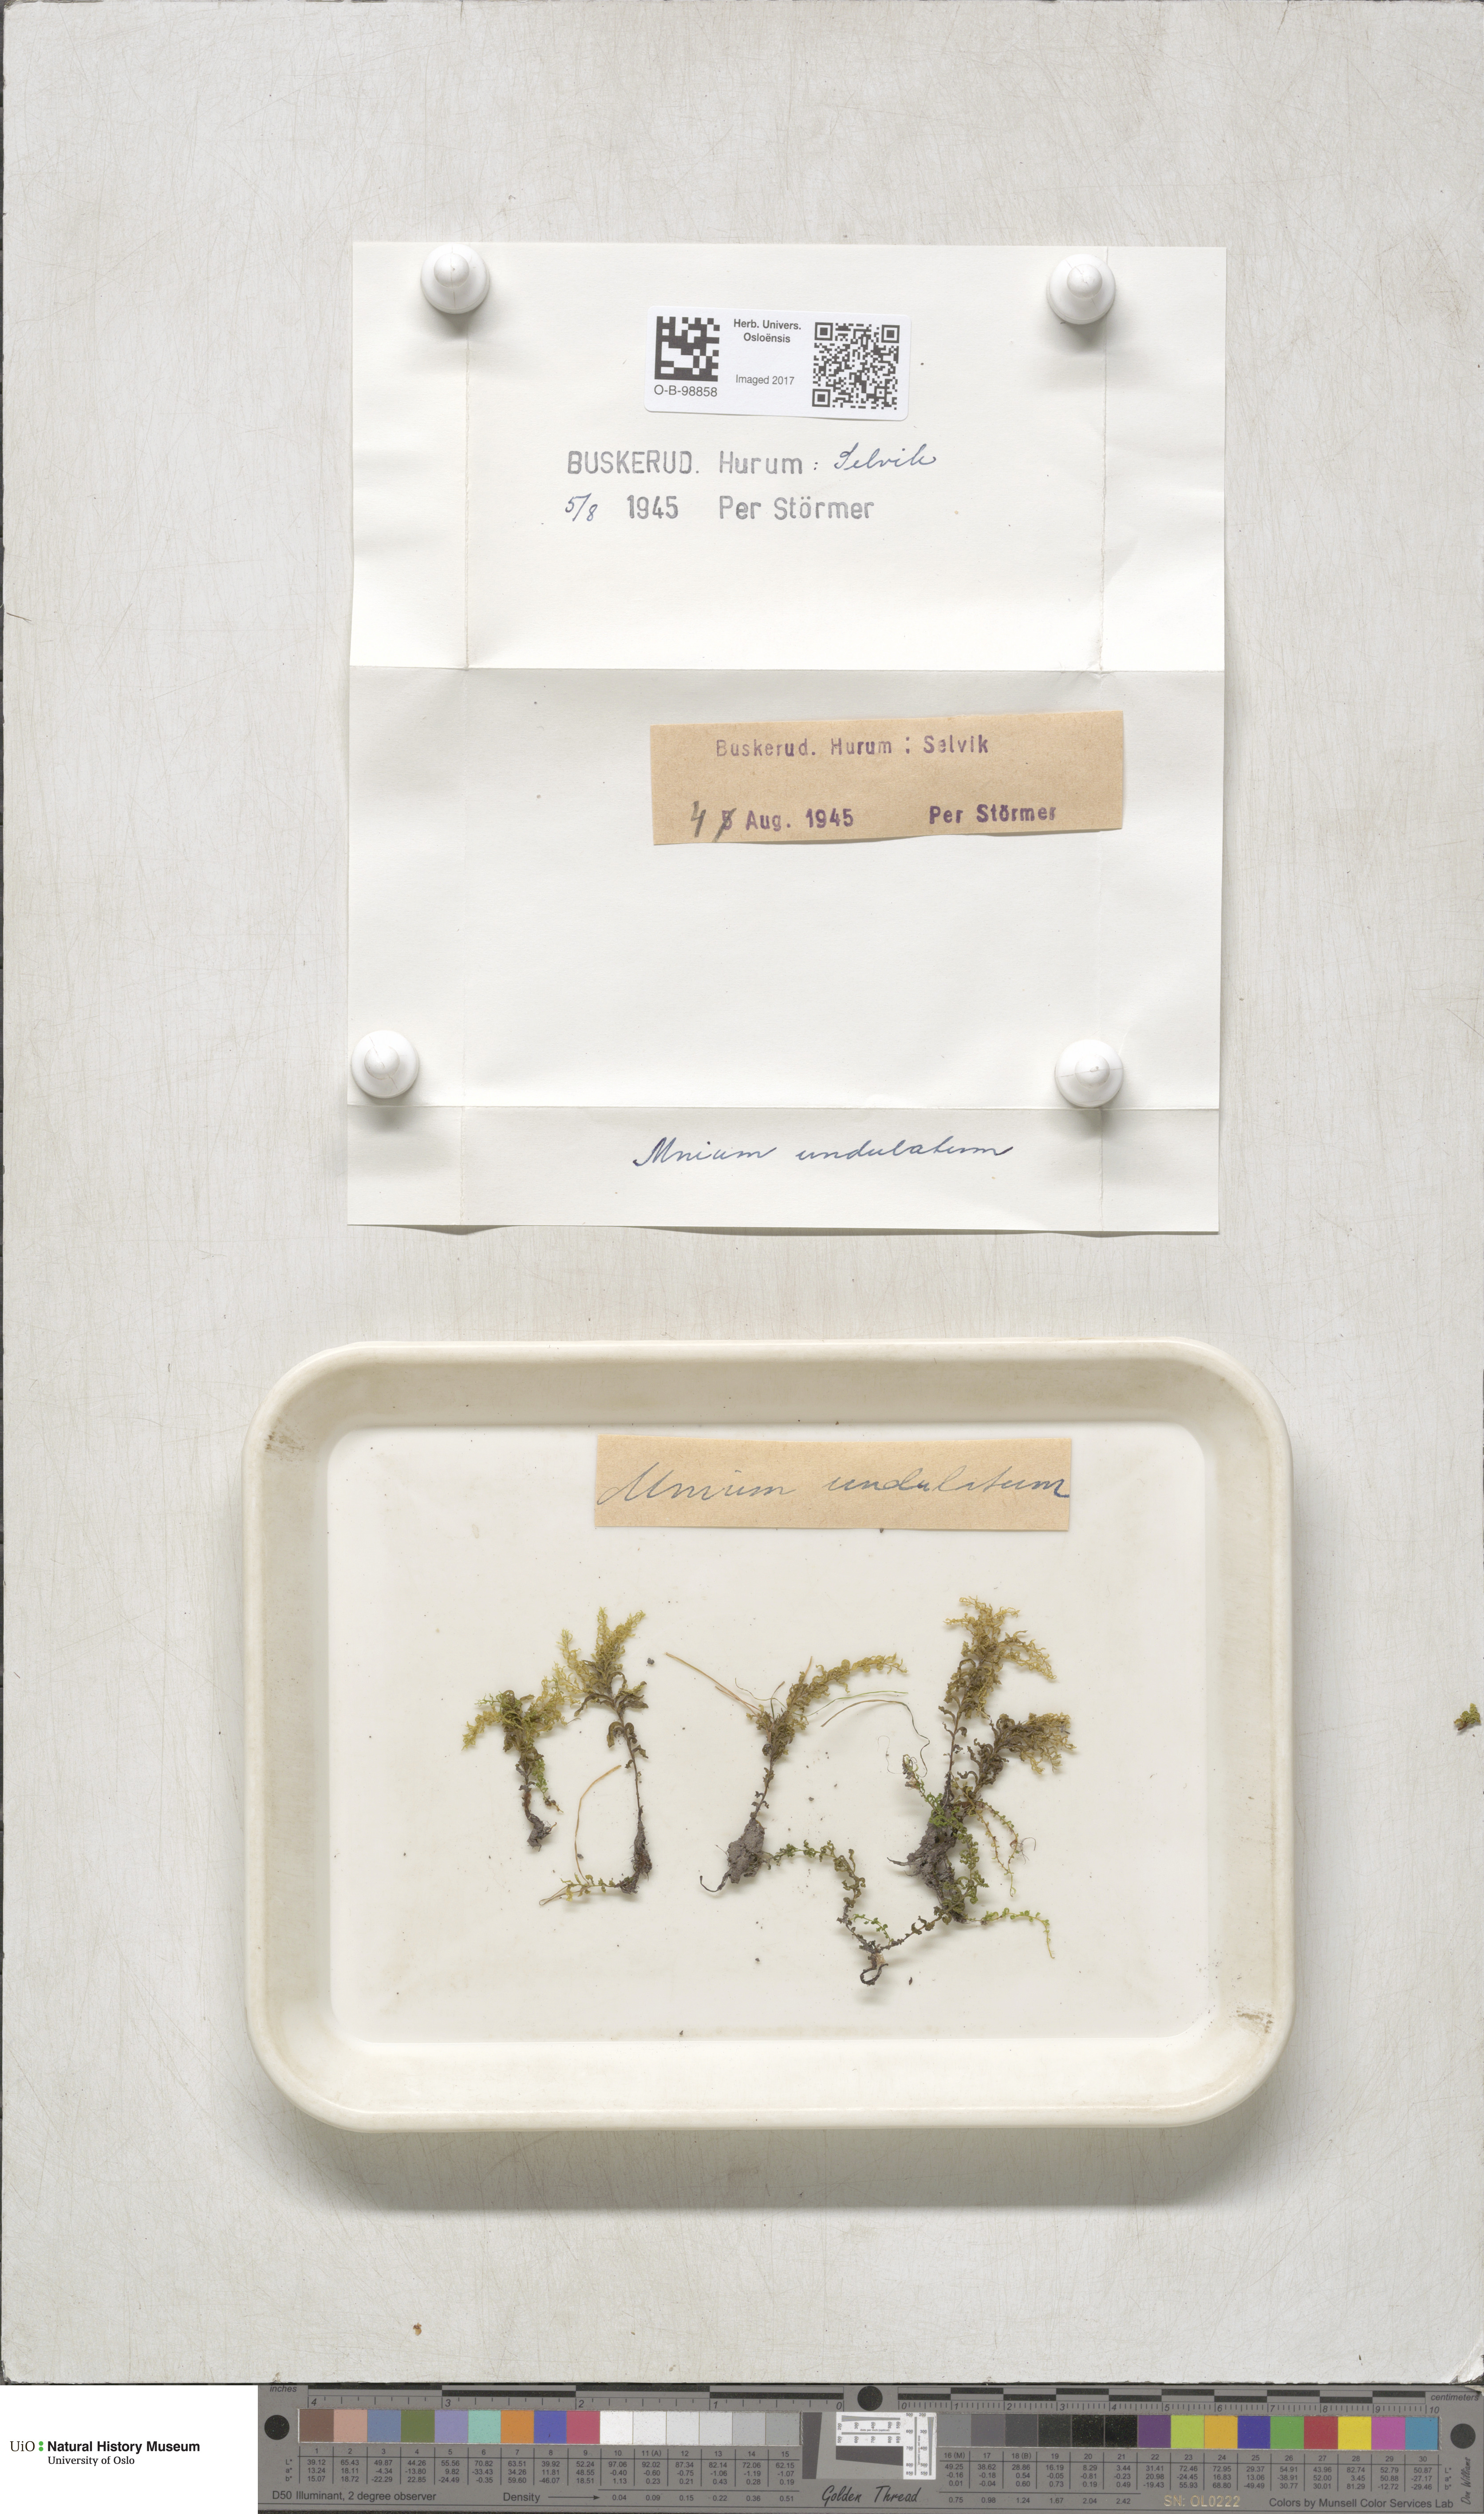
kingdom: Plantae
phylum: Bryophyta
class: Bryopsida
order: Bryales
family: Mniaceae
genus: Plagiomnium
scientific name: Plagiomnium undulatum
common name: Hart's-tongue thyme-moss
